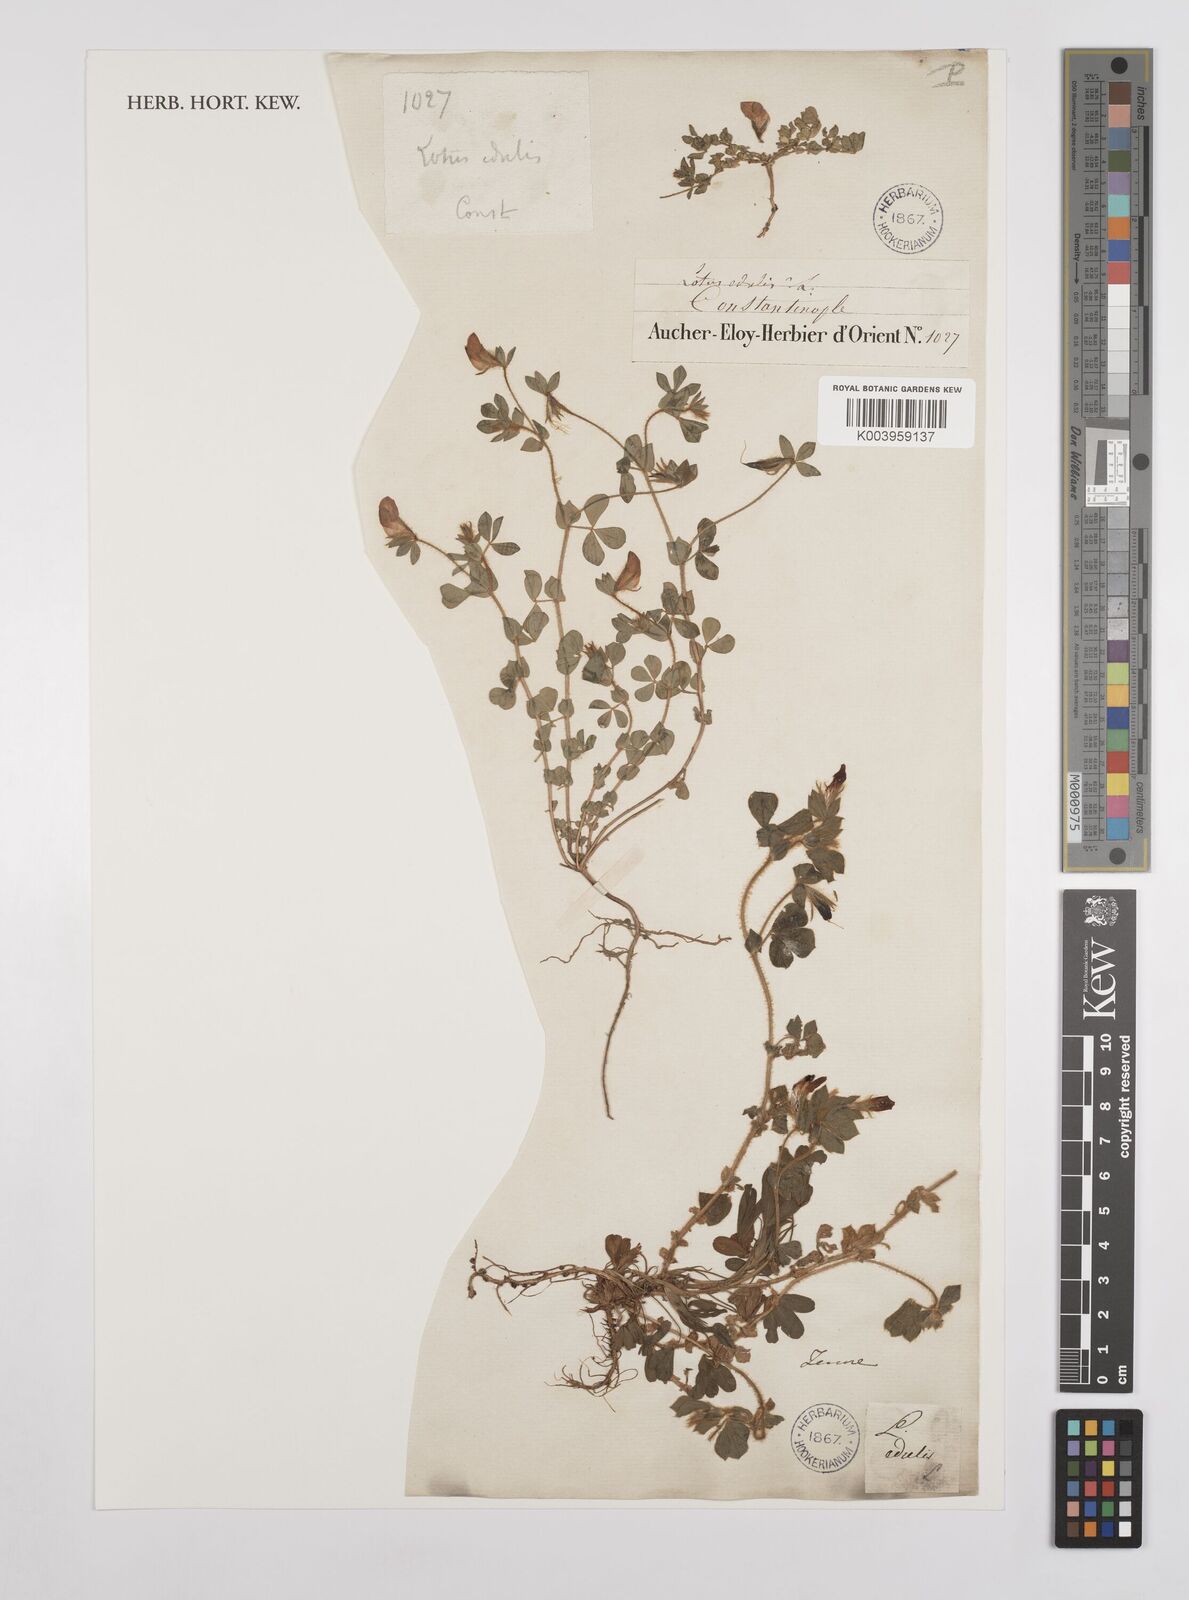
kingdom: Plantae
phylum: Tracheophyta
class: Magnoliopsida
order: Fabales
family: Fabaceae
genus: Lotus
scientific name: Lotus edulis
